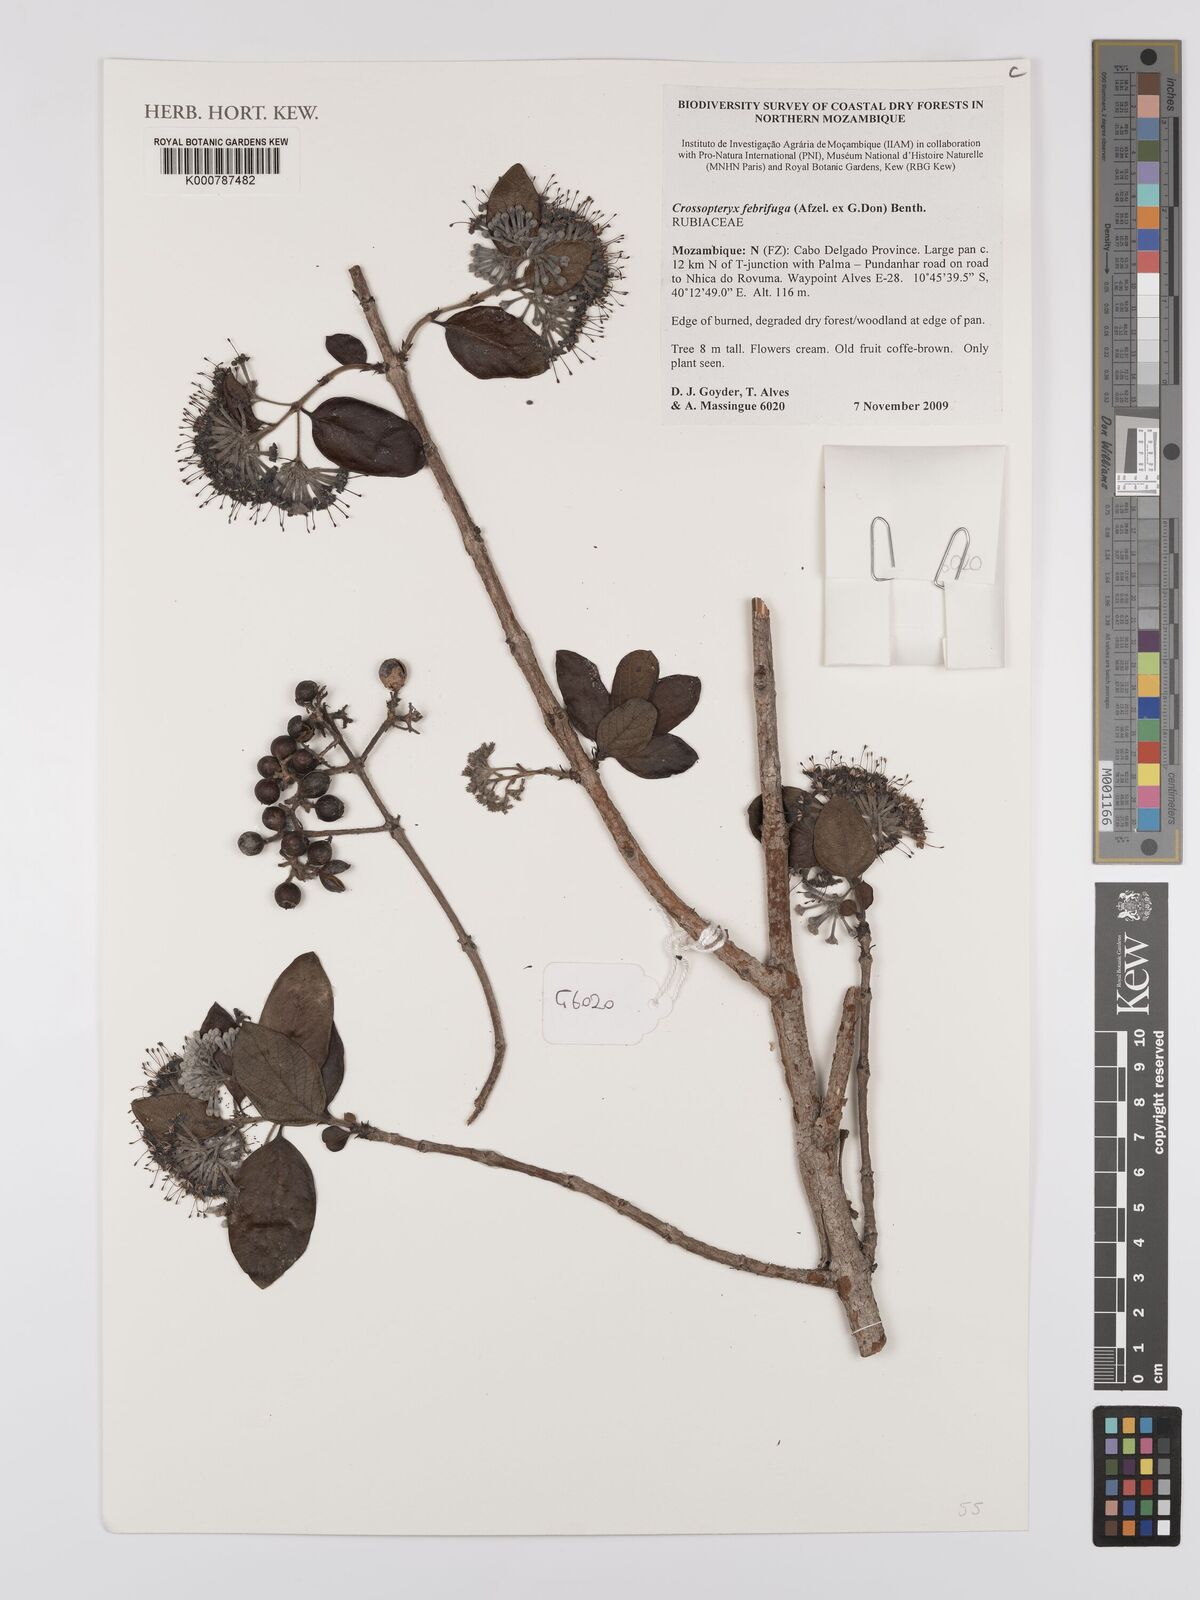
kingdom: Plantae
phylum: Tracheophyta
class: Magnoliopsida
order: Gentianales
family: Rubiaceae
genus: Crossopteryx
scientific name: Crossopteryx febrifuga
